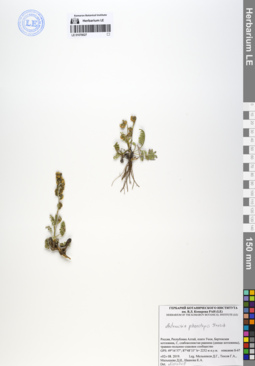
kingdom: Plantae
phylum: Tracheophyta
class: Magnoliopsida
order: Asterales
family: Asteraceae
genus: Artemisia
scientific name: Artemisia phaeolepis
